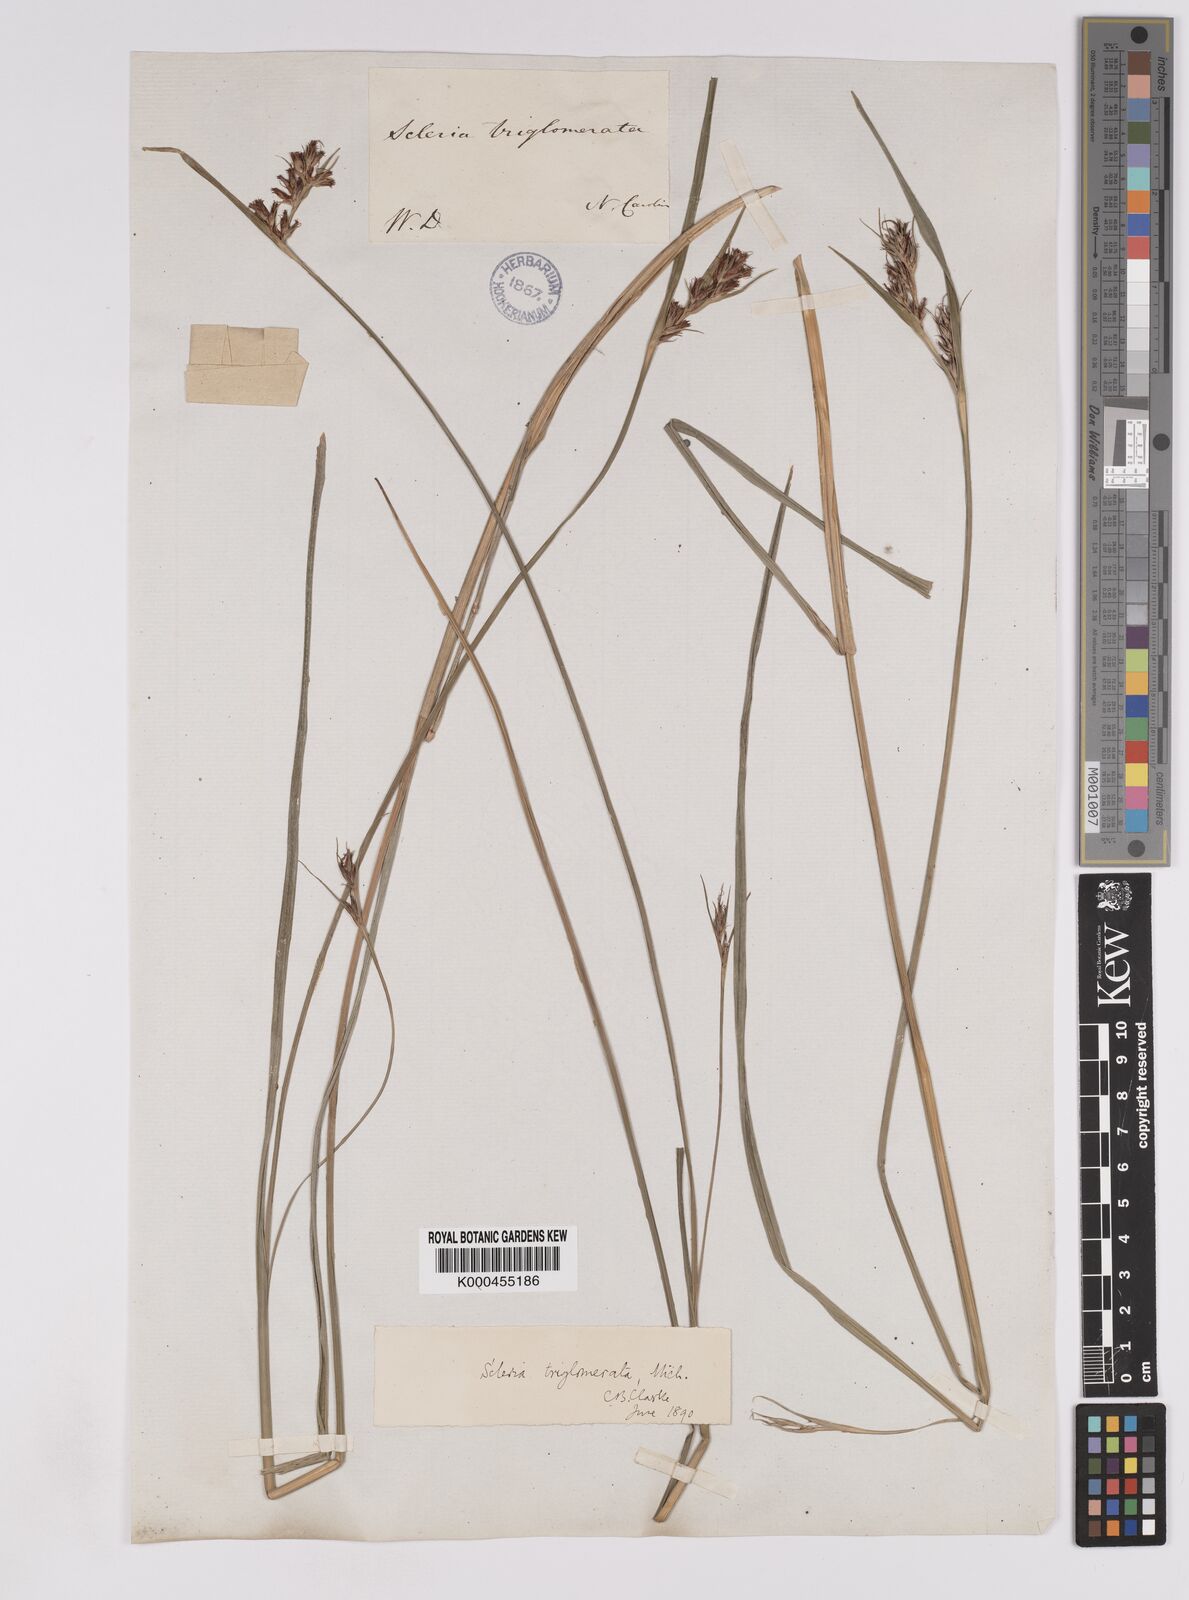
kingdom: Plantae
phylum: Tracheophyta
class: Liliopsida
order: Poales
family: Cyperaceae
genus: Scleria
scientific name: Scleria triglomerata
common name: Whip nutrush
